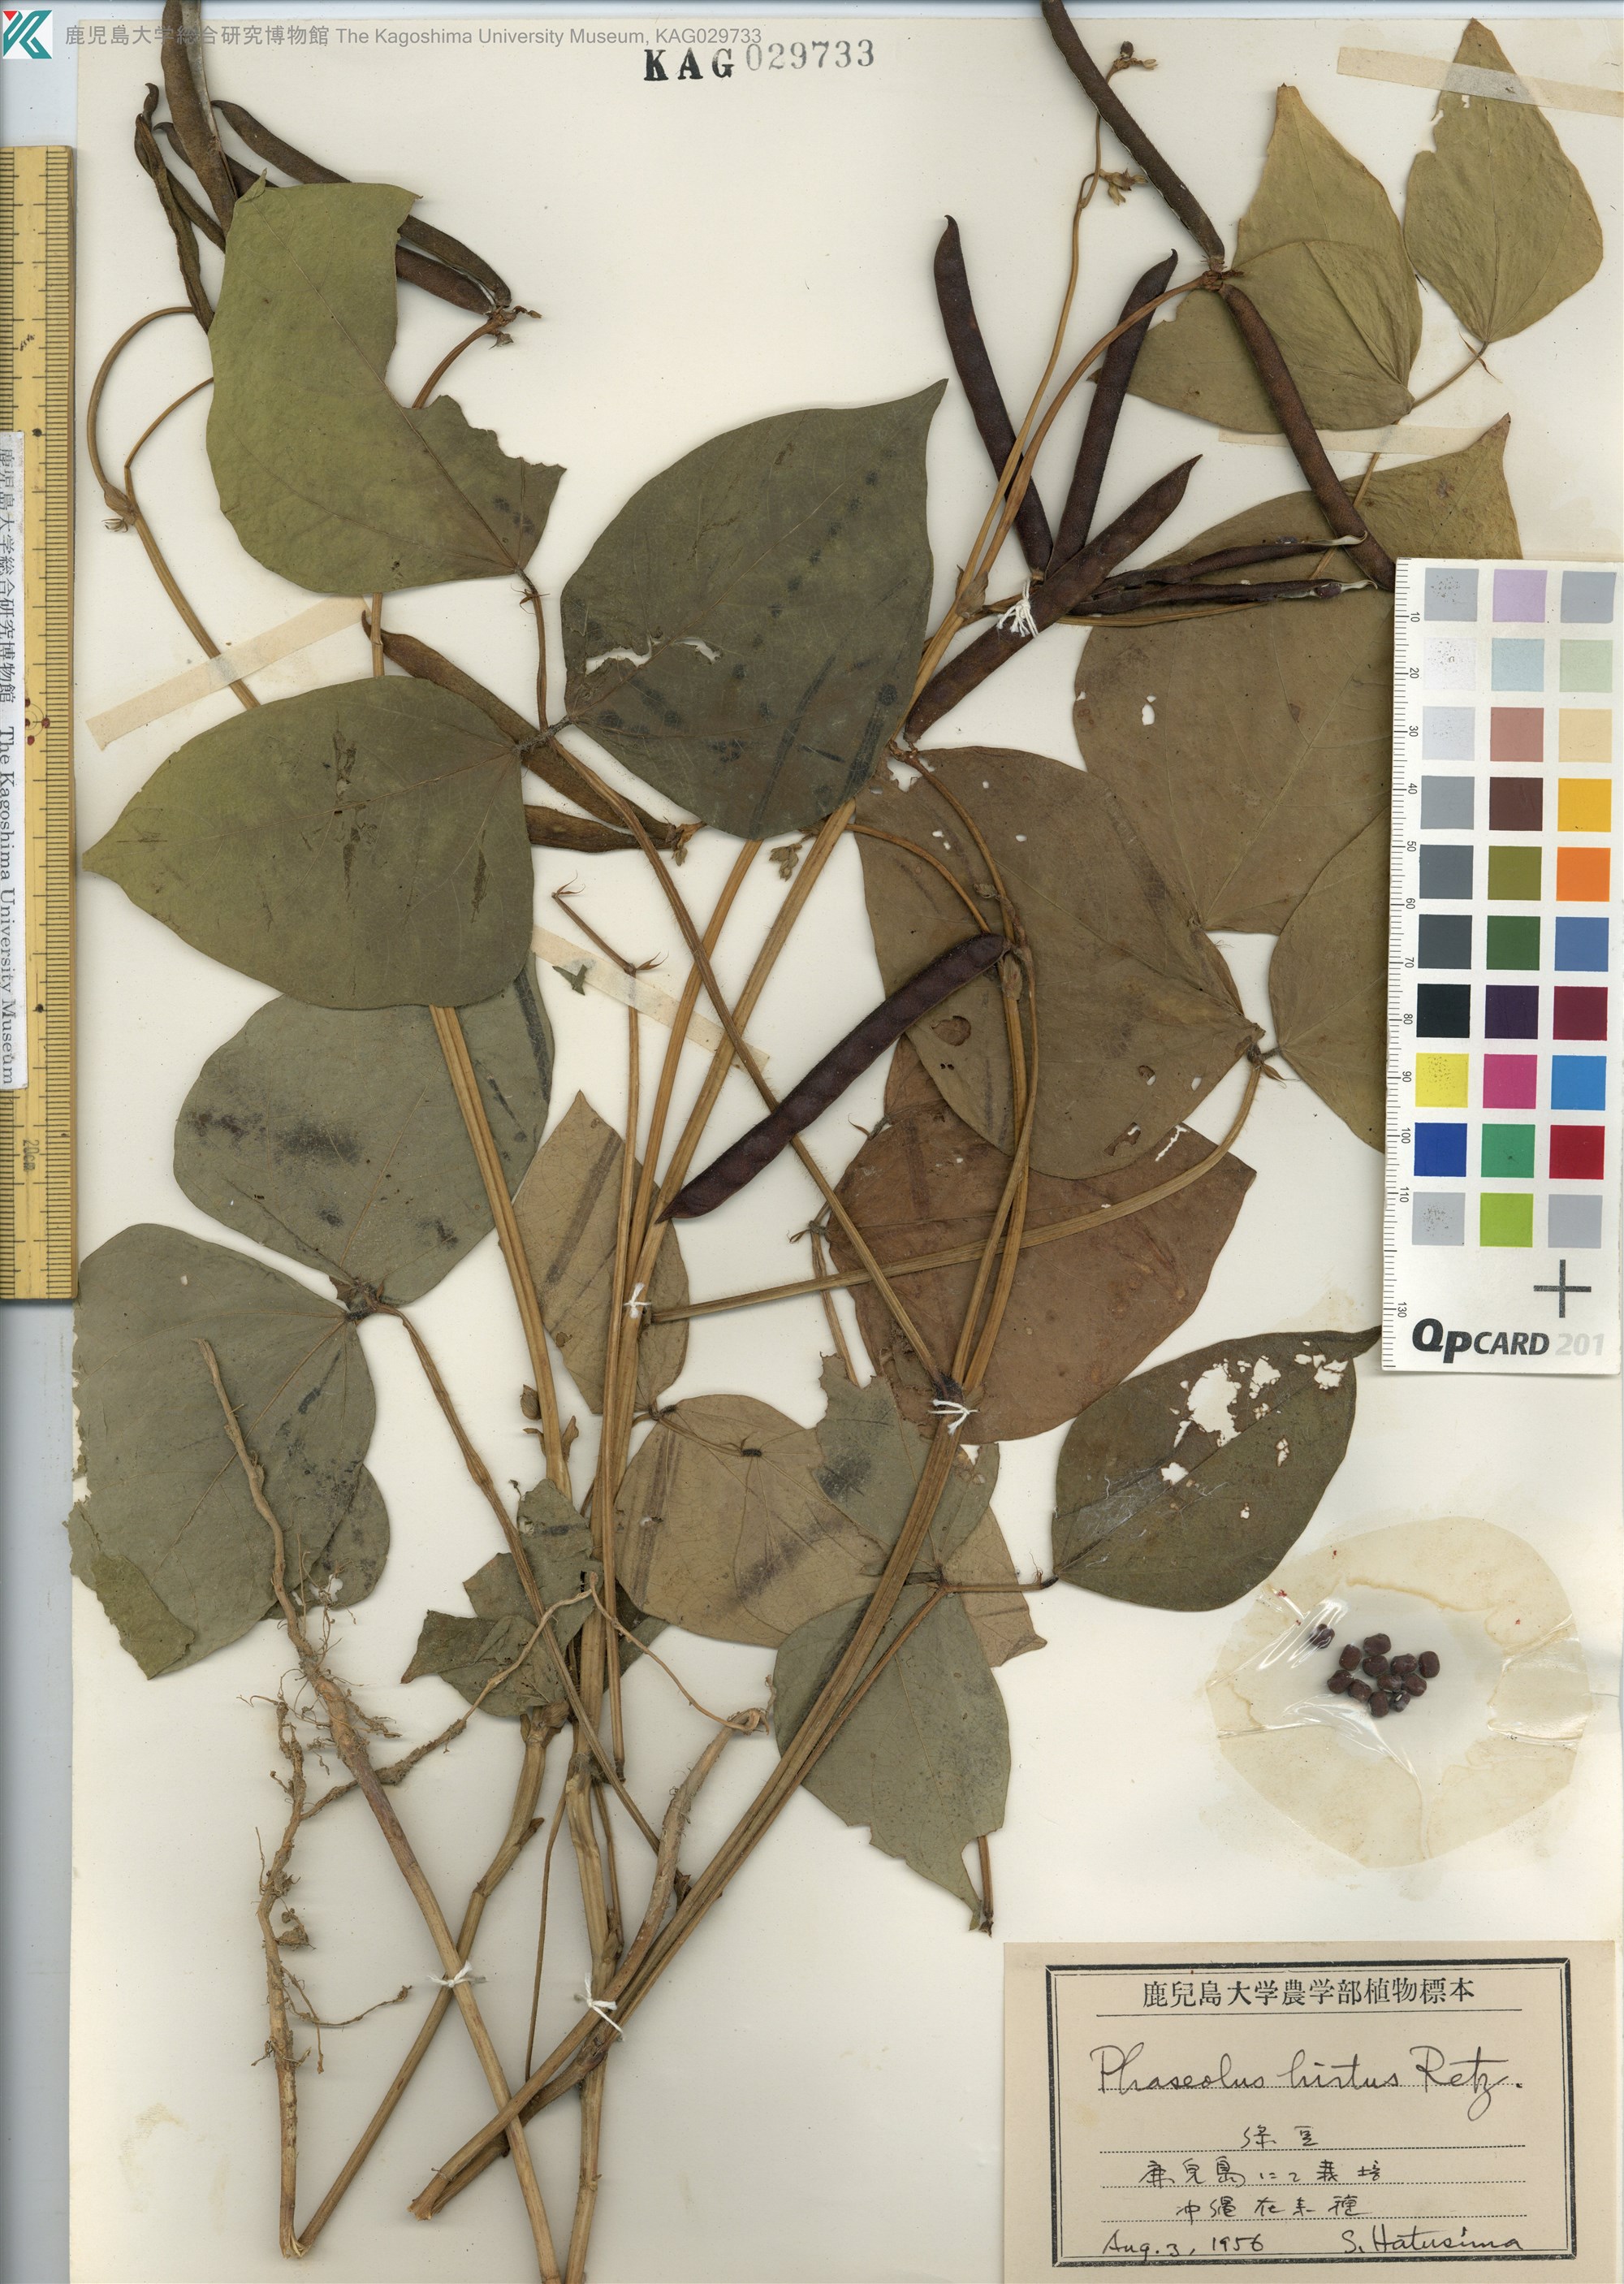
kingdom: Plantae
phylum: Tracheophyta
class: Magnoliopsida
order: Fabales
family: Fabaceae
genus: Vigna
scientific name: Vigna radiata
